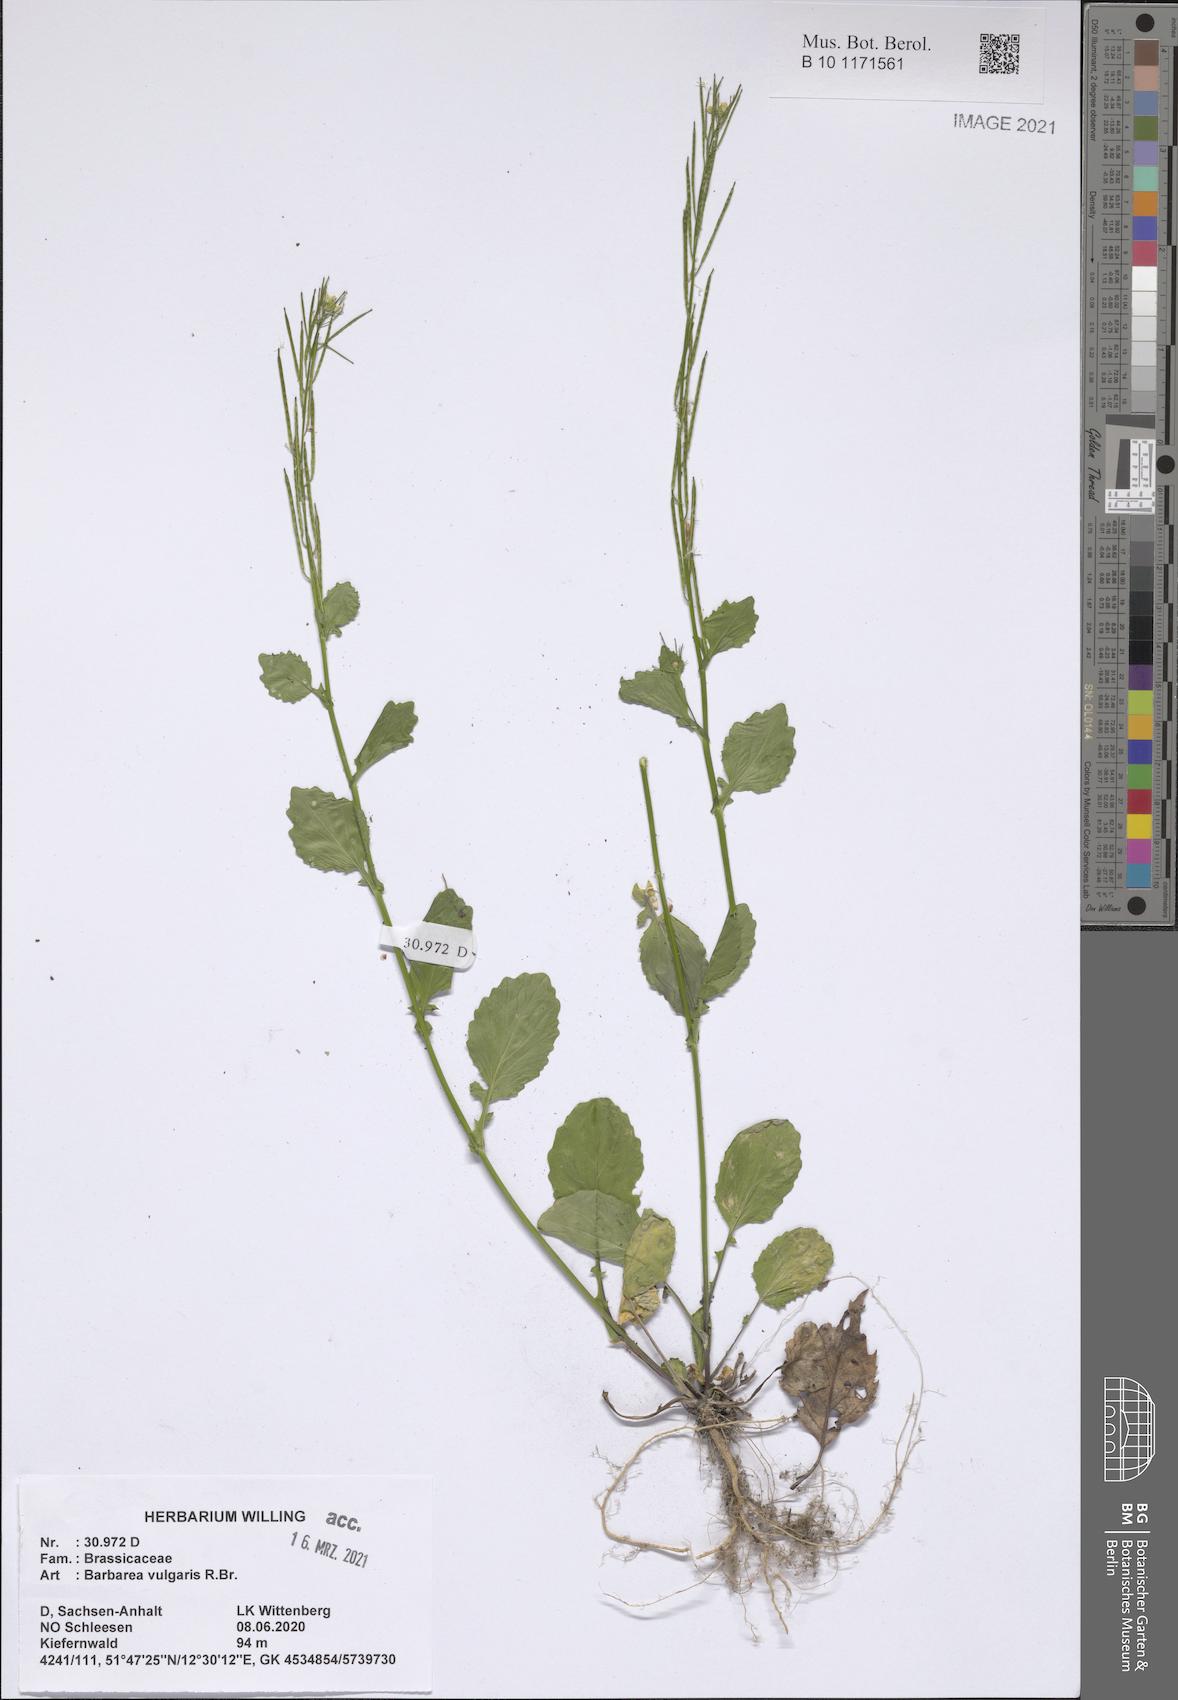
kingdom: Plantae
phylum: Tracheophyta
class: Magnoliopsida
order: Brassicales
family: Brassicaceae
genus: Barbarea
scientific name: Barbarea vulgaris
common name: Cressy-greens
